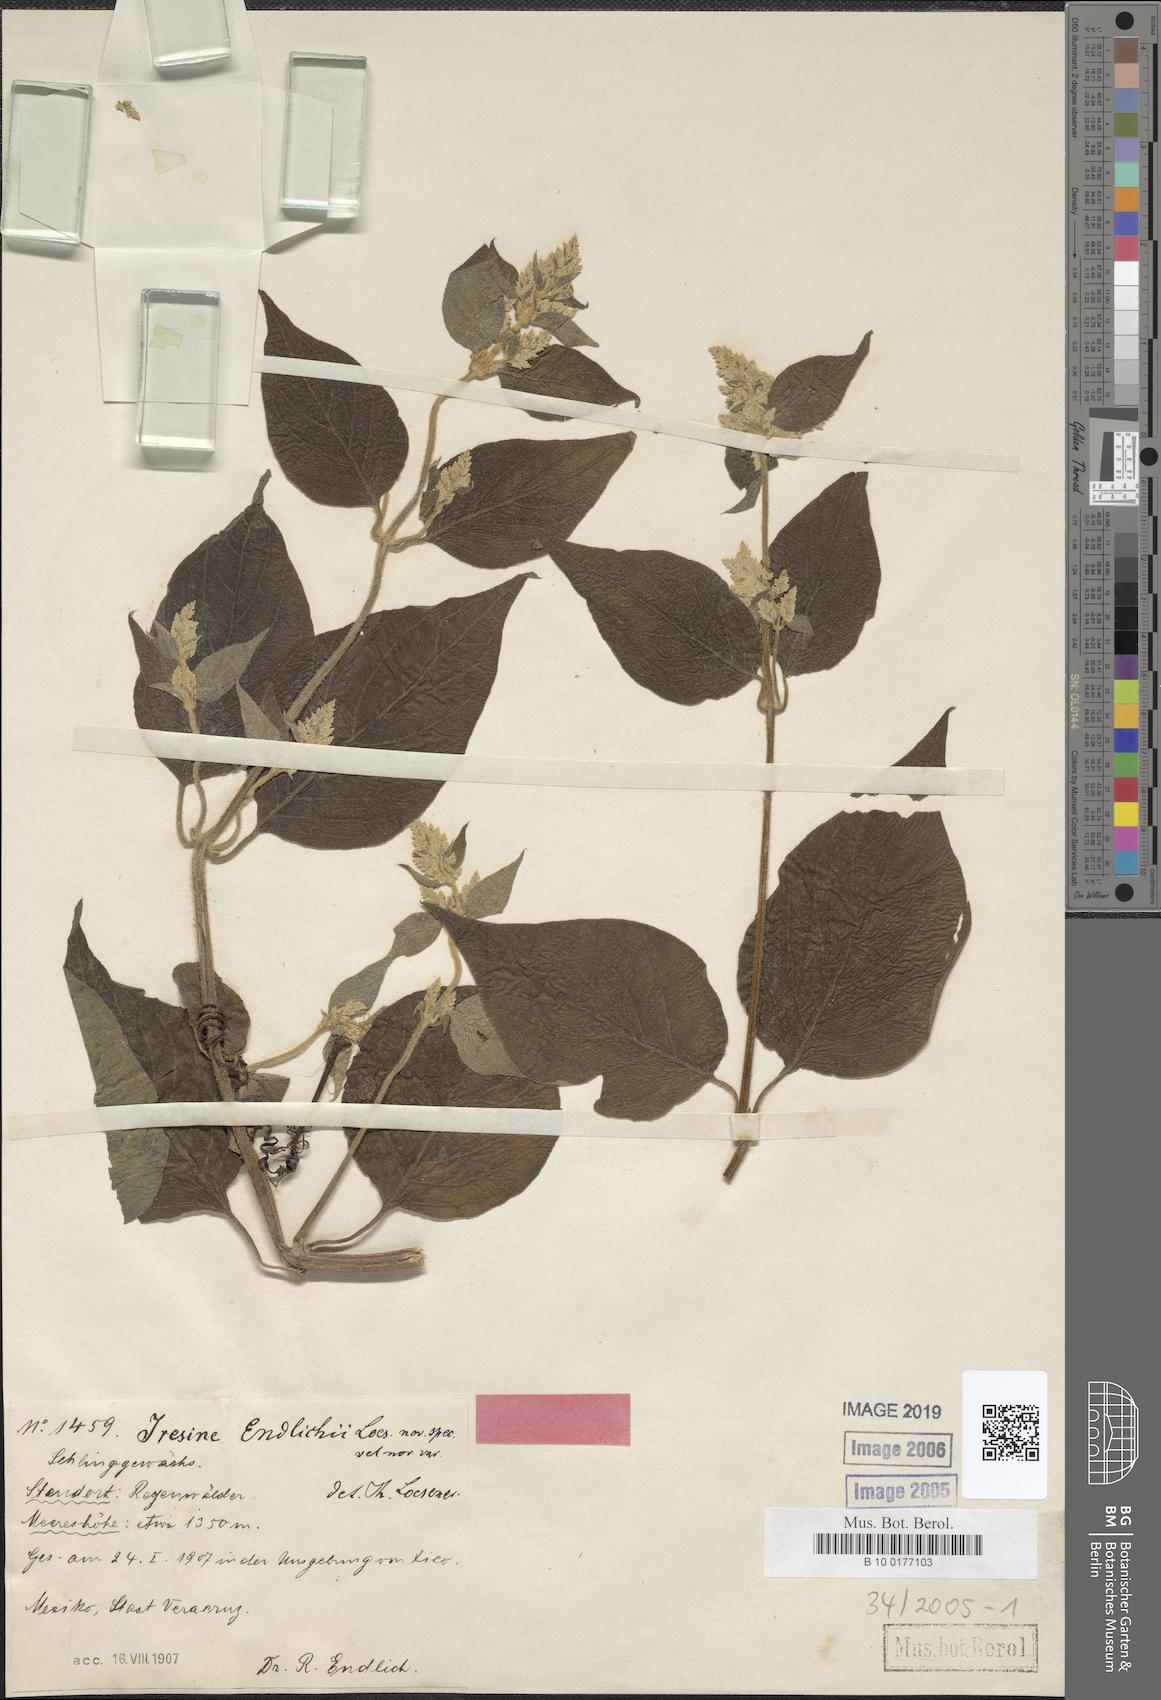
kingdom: Plantae
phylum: Tracheophyta
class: Magnoliopsida
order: Caryophyllales
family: Amaranthaceae
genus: Iresine
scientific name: Iresine diffusa
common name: Juba's-bush
